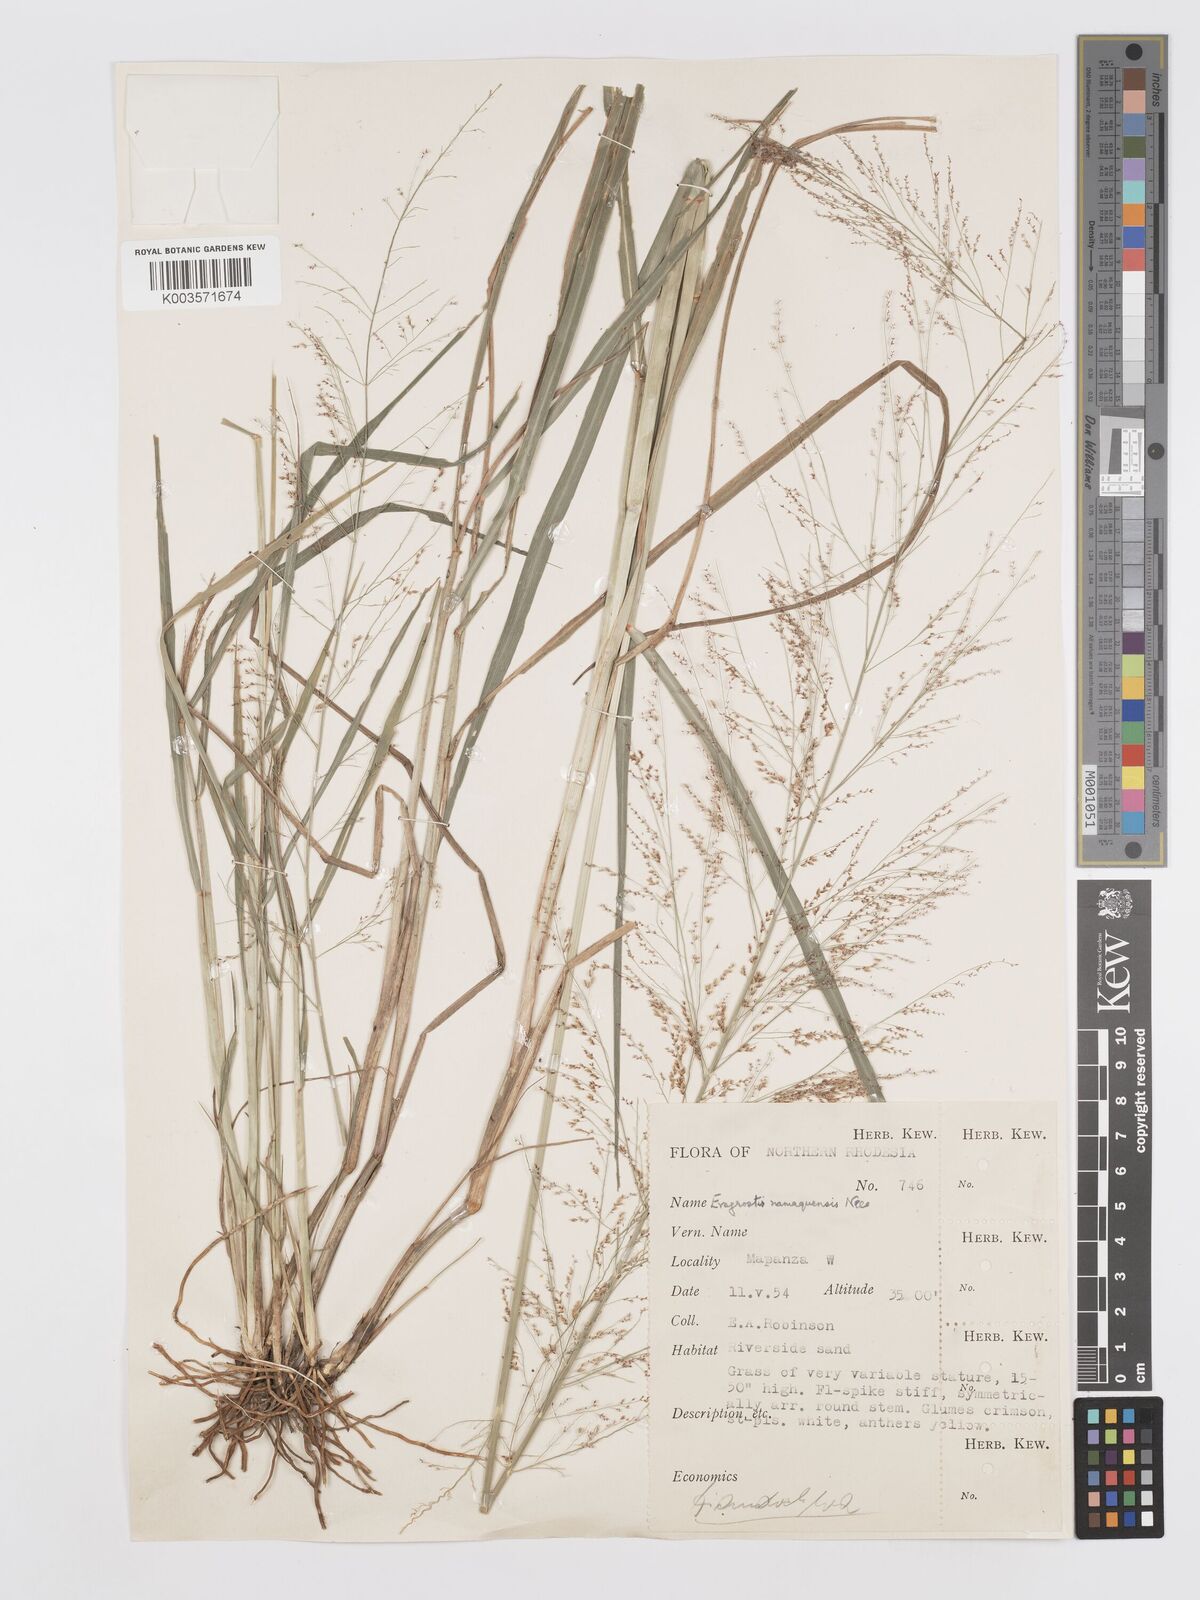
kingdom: Plantae
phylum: Tracheophyta
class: Liliopsida
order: Poales
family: Poaceae
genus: Eragrostis
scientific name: Eragrostis japonica
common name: Pond lovegrass
